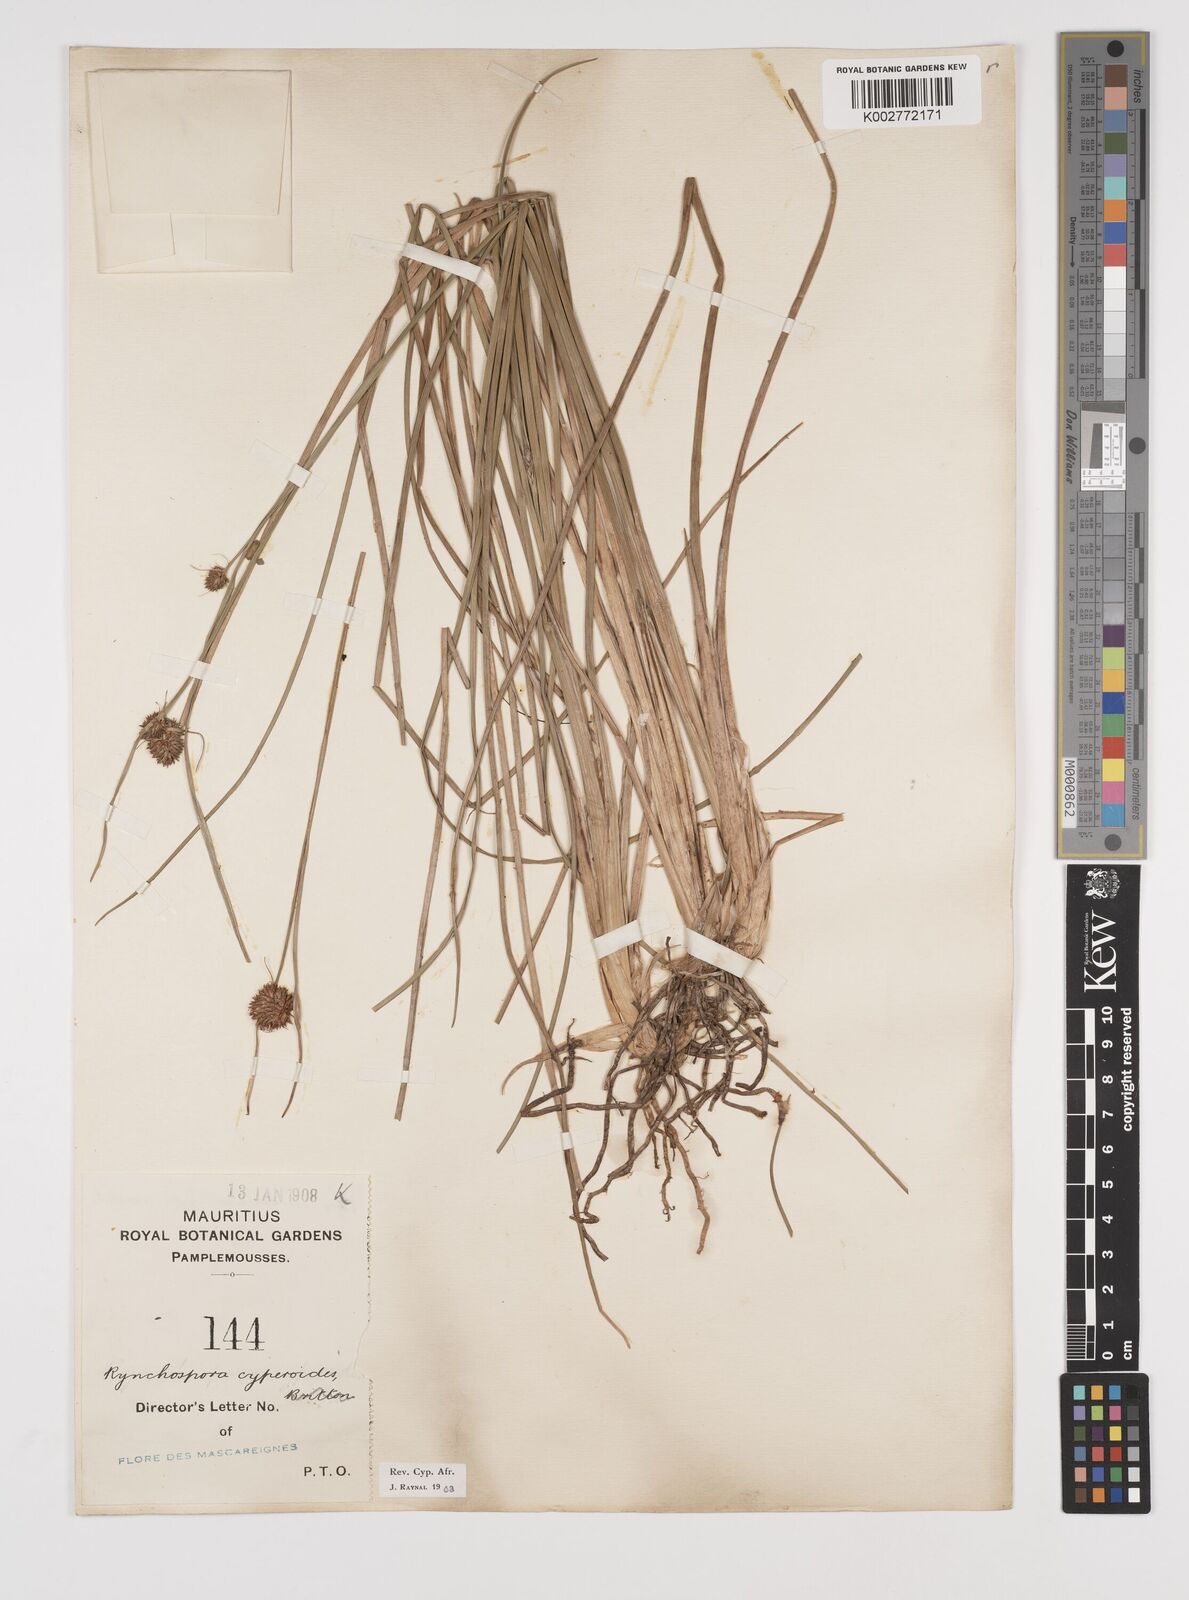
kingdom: Plantae
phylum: Tracheophyta
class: Liliopsida
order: Poales
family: Cyperaceae
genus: Rhynchospora
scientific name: Rhynchospora holoschoenoides
